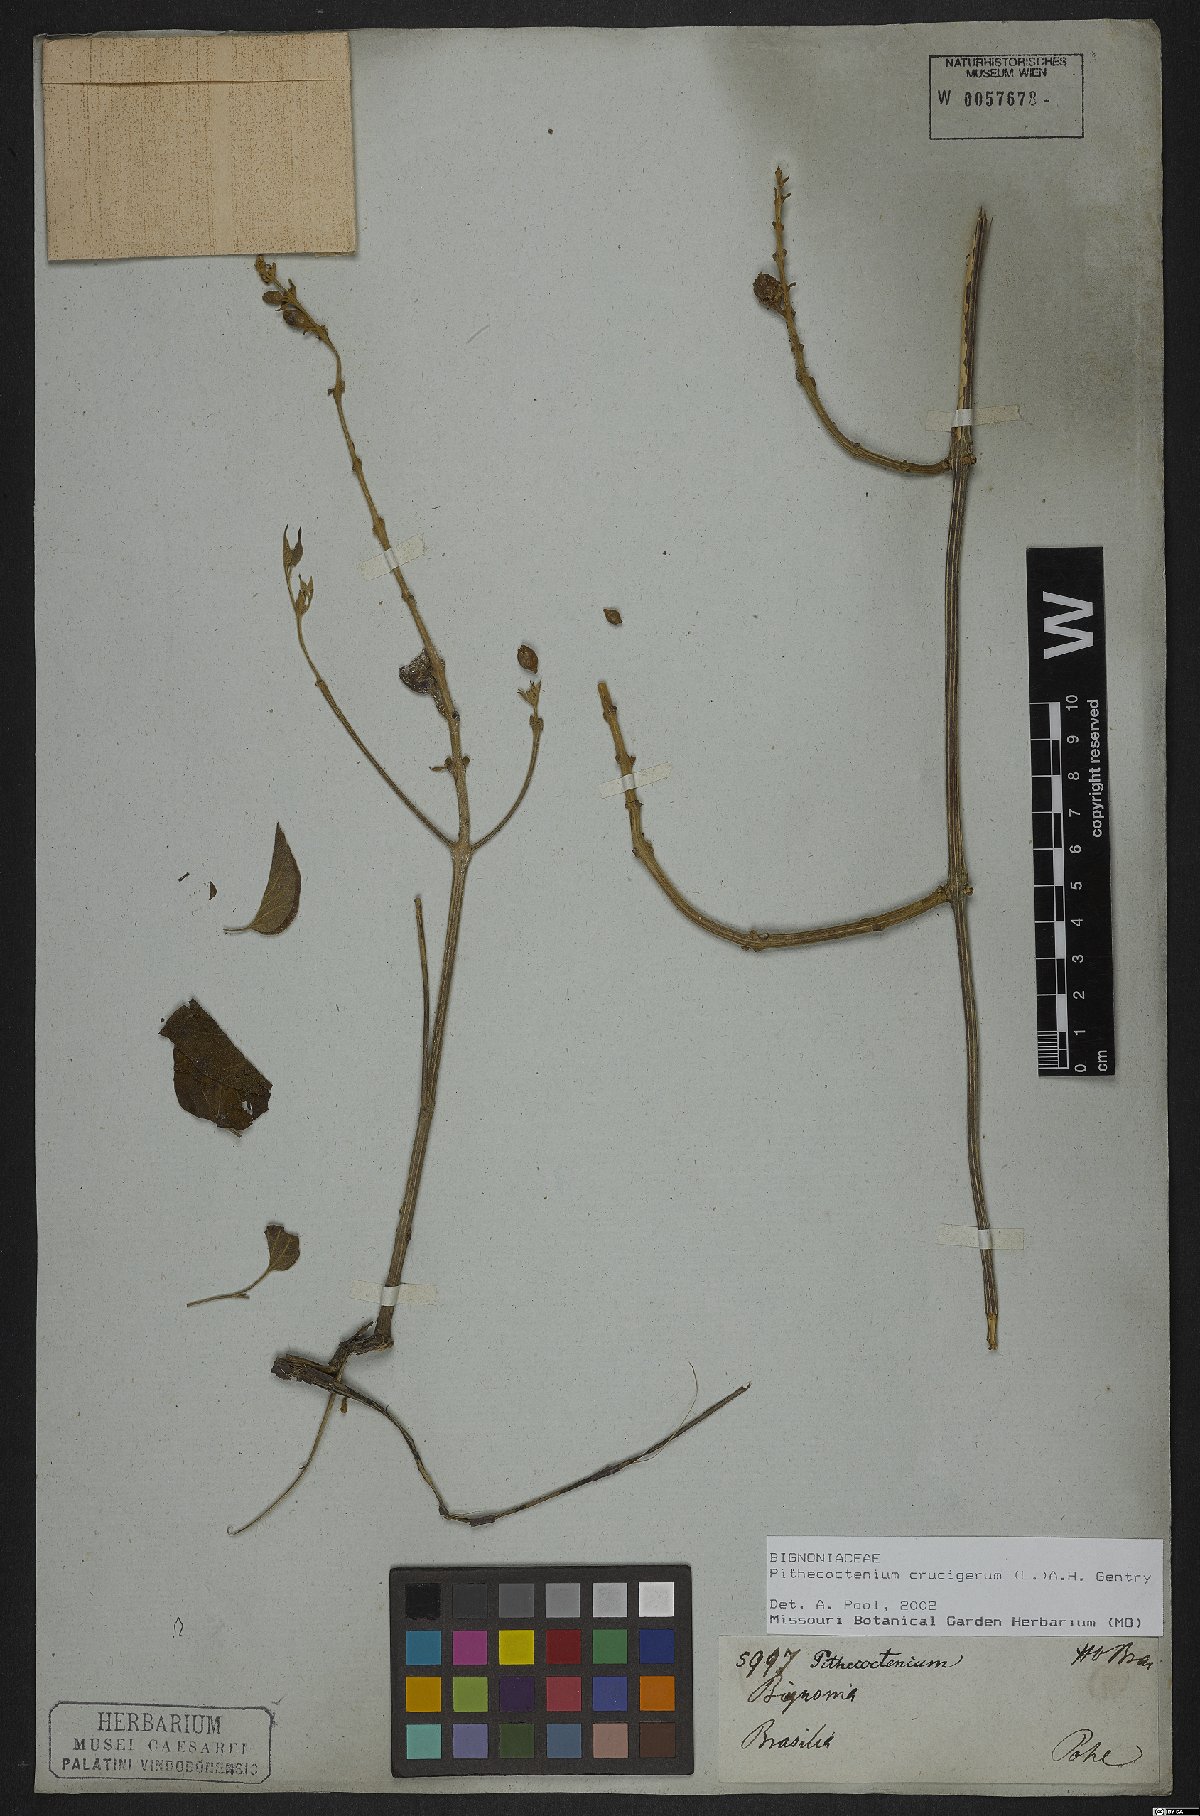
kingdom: Plantae
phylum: Tracheophyta
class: Magnoliopsida
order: Lamiales
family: Bignoniaceae
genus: Amphilophium
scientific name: Amphilophium crucigerum
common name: Monkey comb
